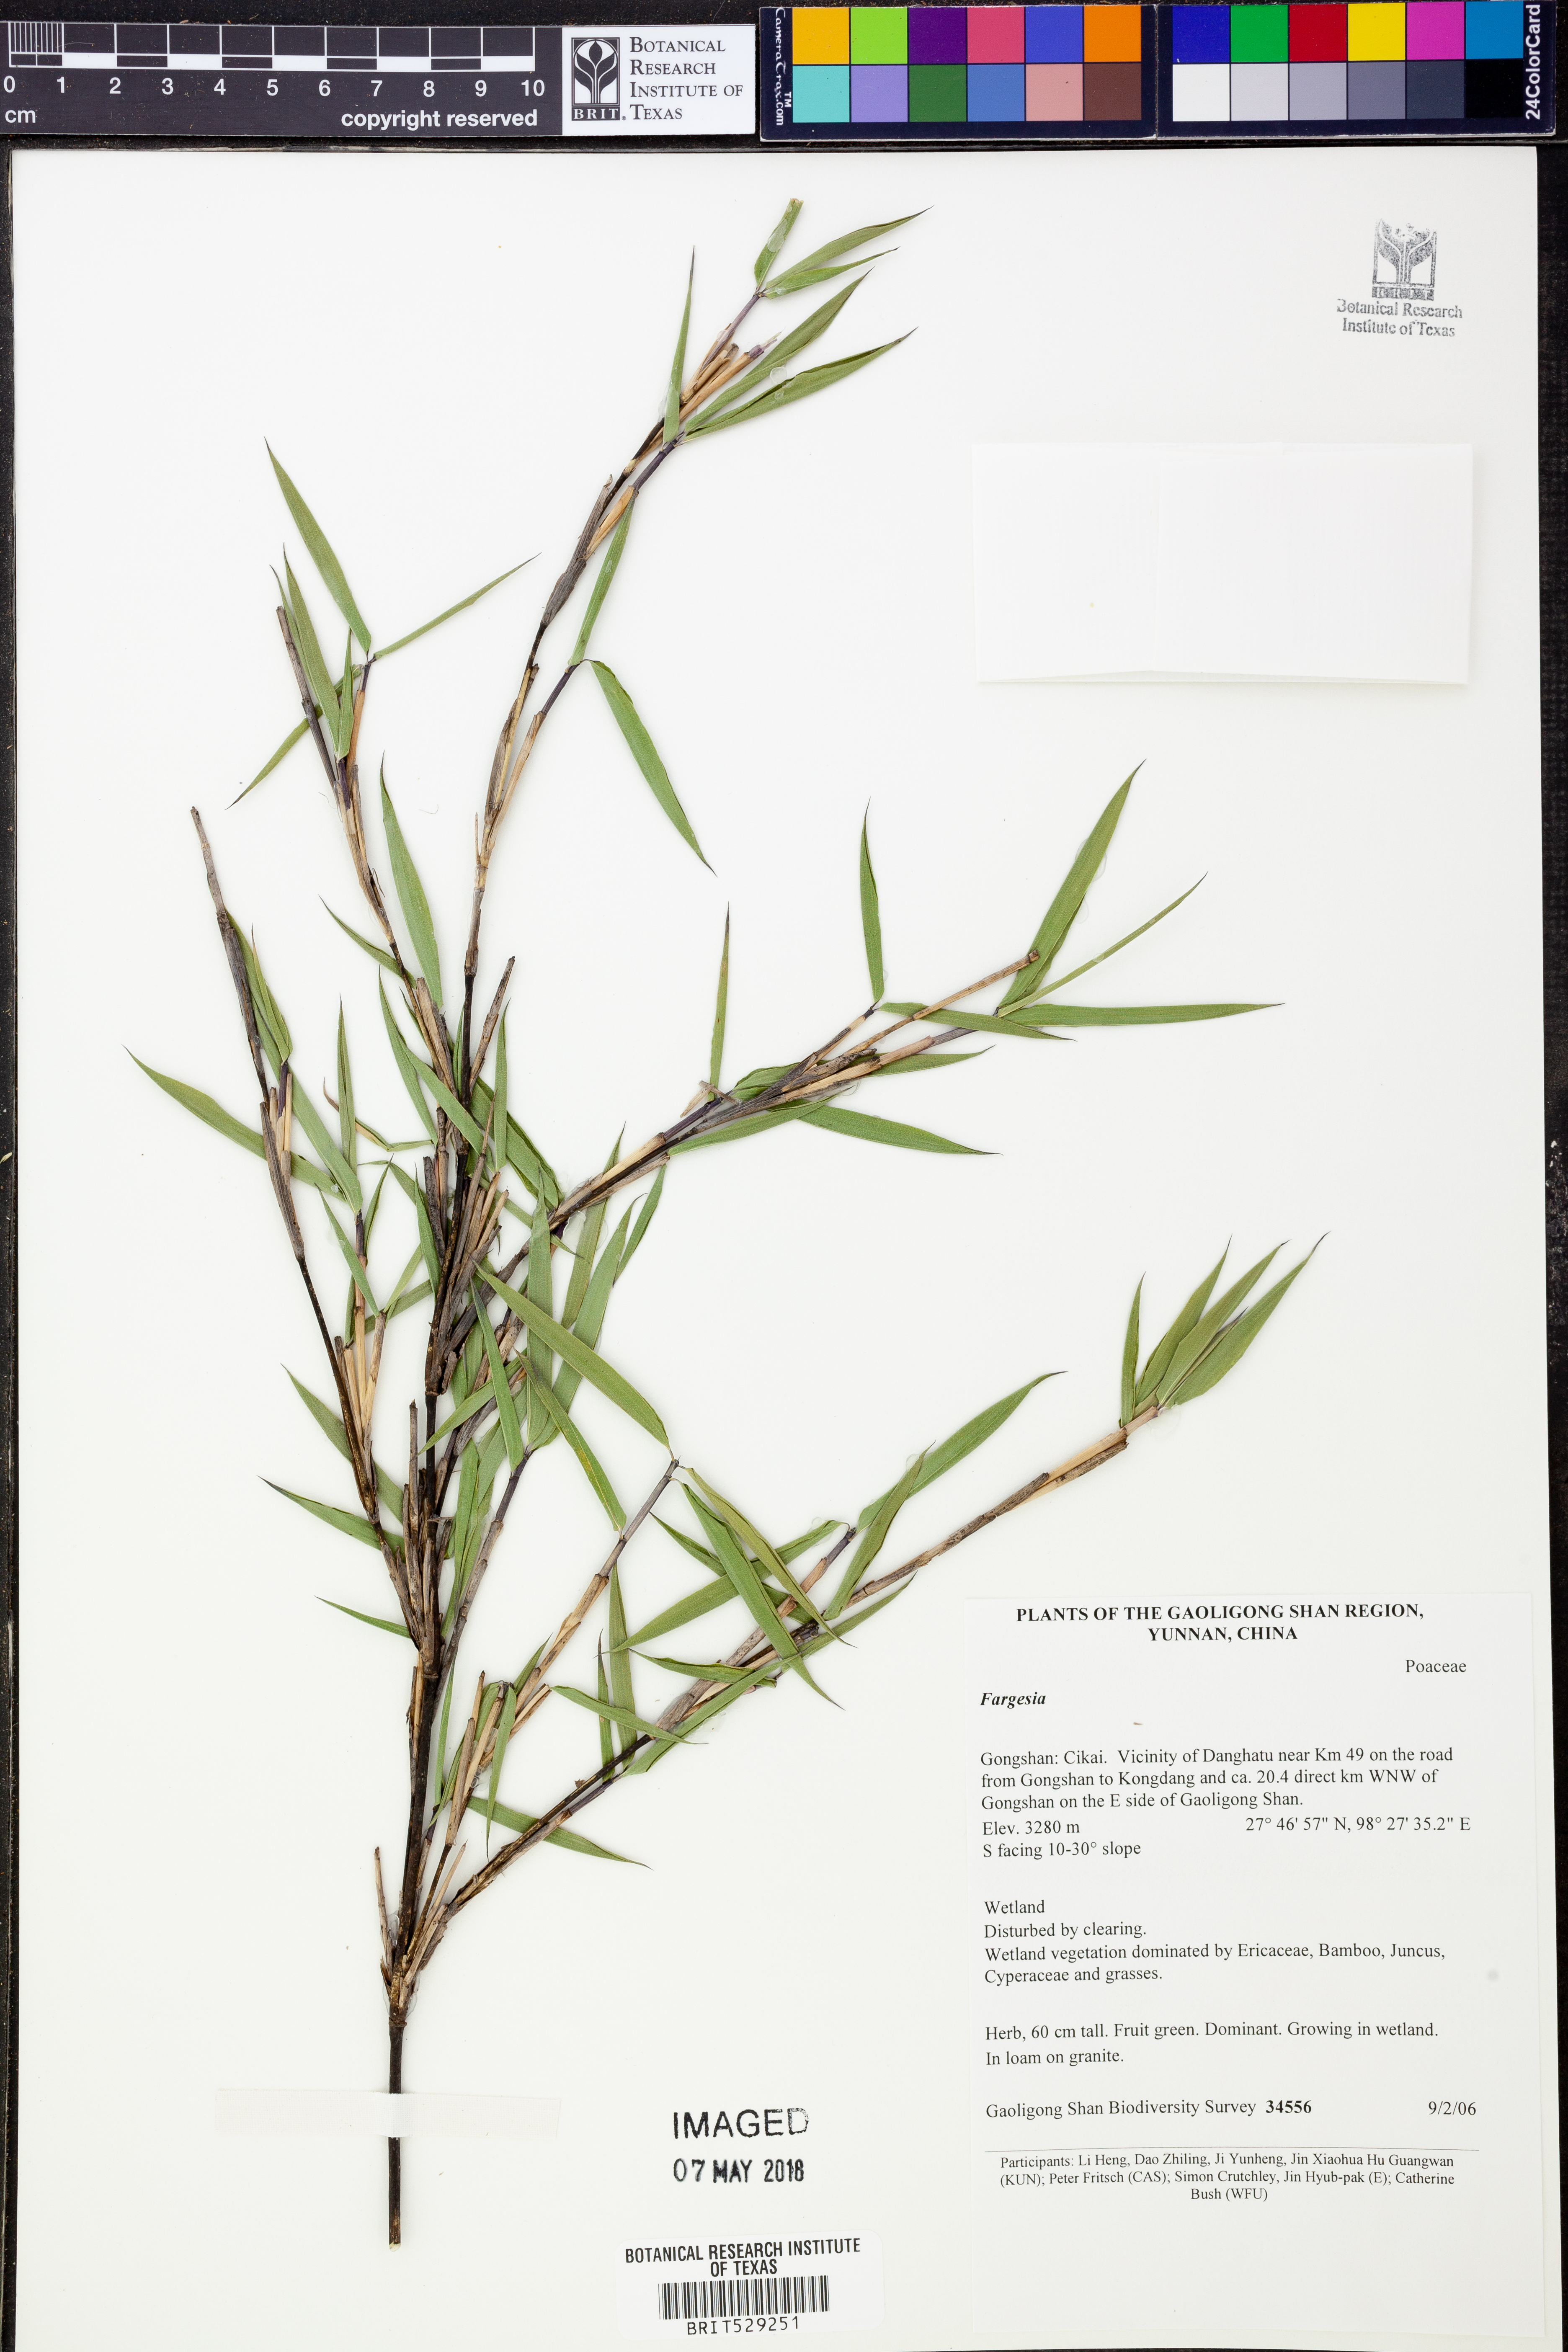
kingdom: Plantae
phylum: Tracheophyta
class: Liliopsida
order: Poales
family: Poaceae
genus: Fargesia
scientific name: Fargesia
